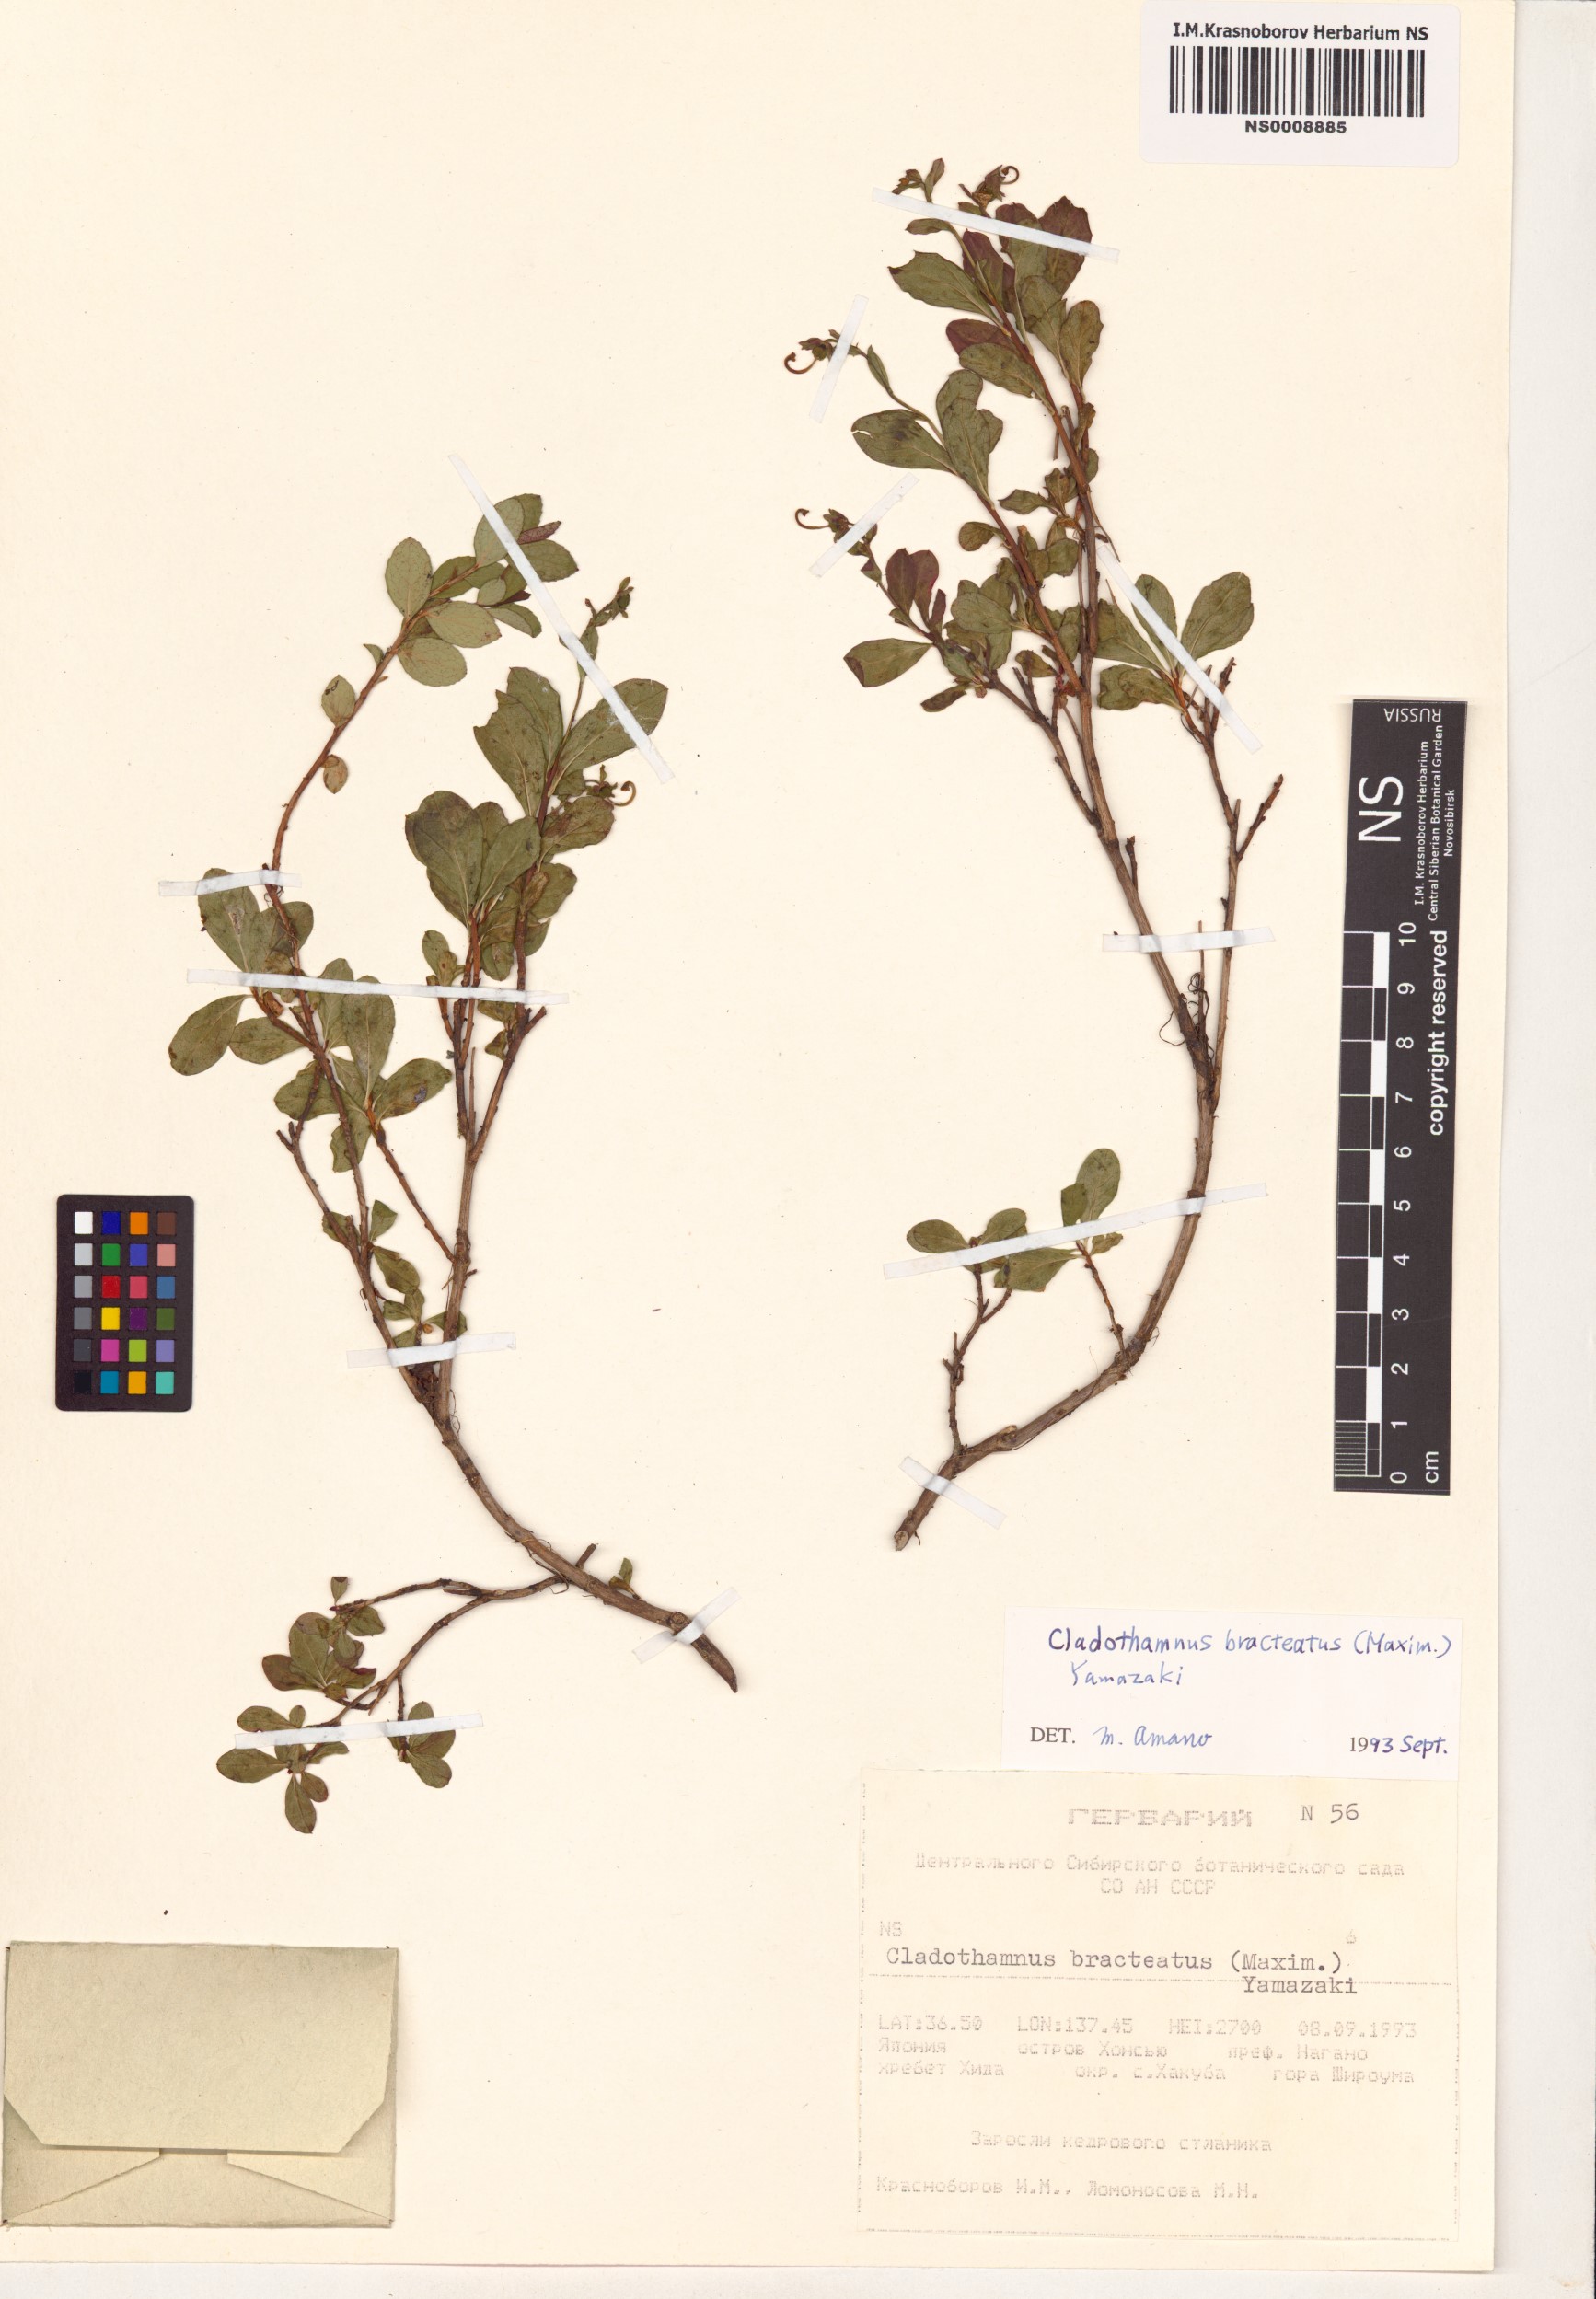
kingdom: Plantae
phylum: Tracheophyta
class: Magnoliopsida
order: Ericales
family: Ericaceae
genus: Elliottia
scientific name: Elliottia bracteata
